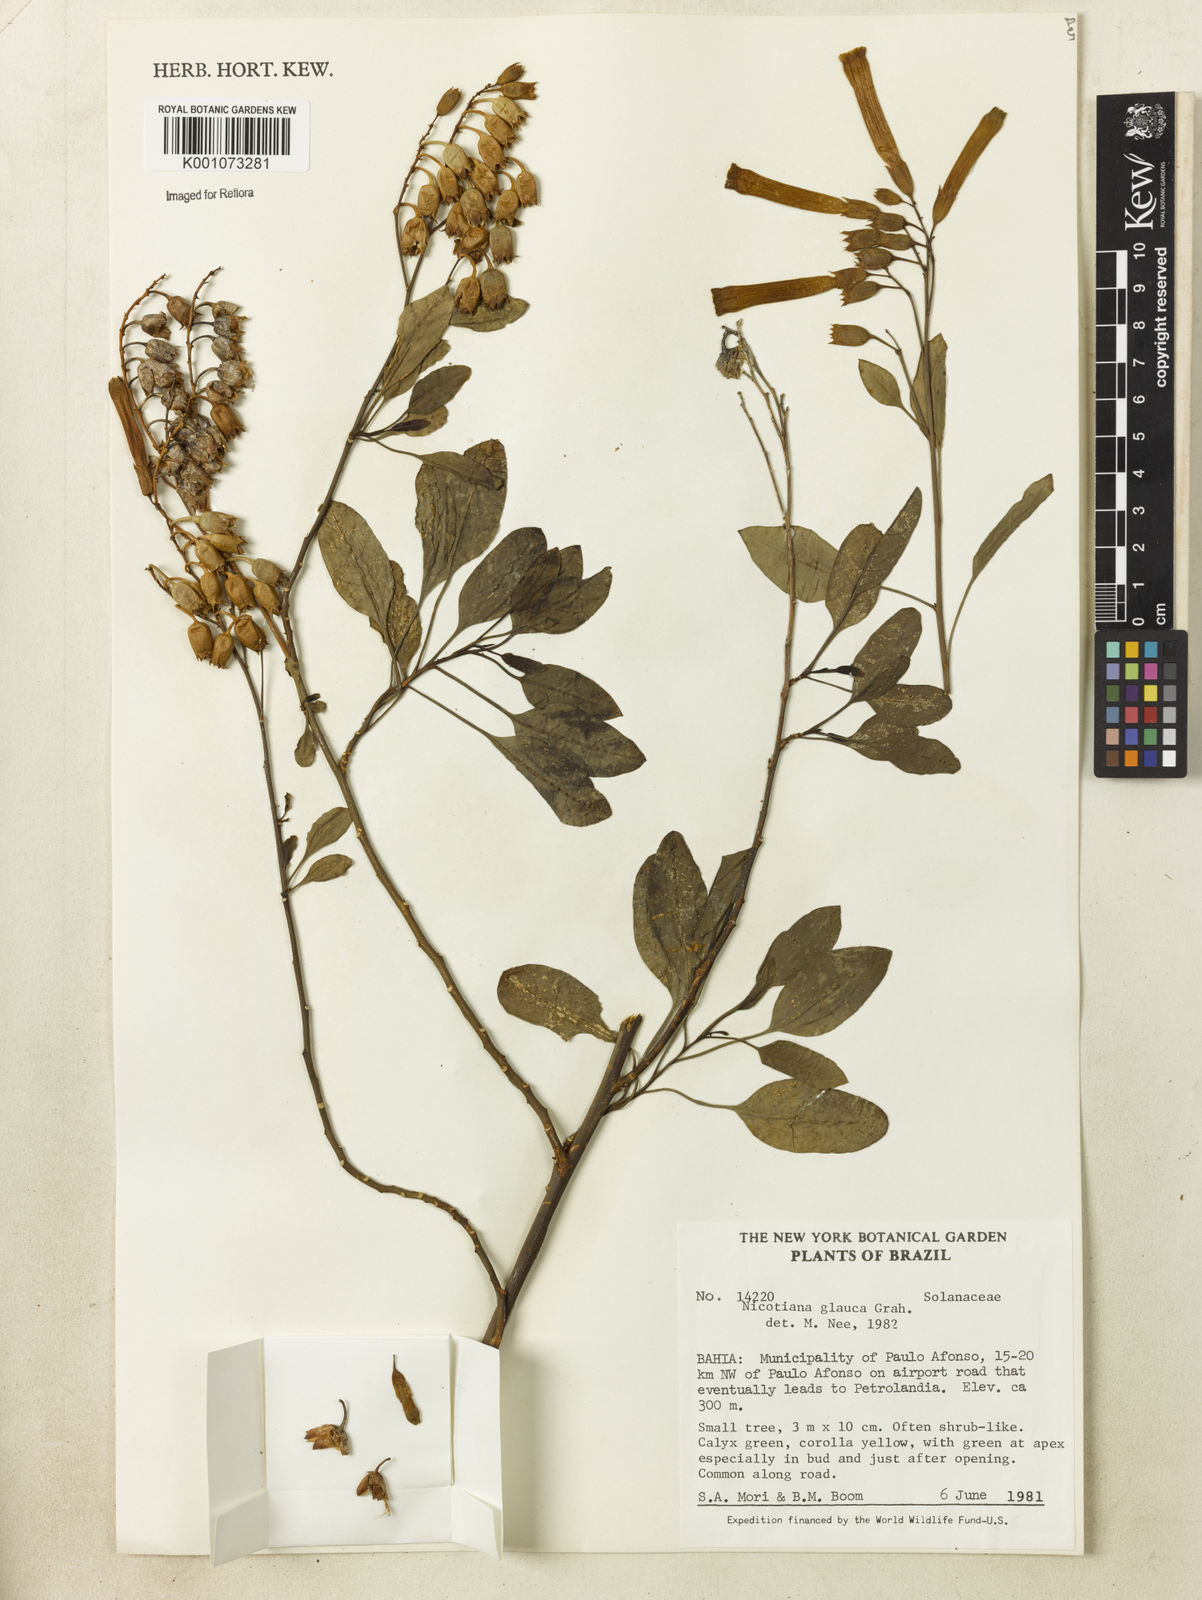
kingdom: Plantae
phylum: Tracheophyta
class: Magnoliopsida
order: Solanales
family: Solanaceae
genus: Nicotiana
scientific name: Nicotiana glauca
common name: Tree tobacco
